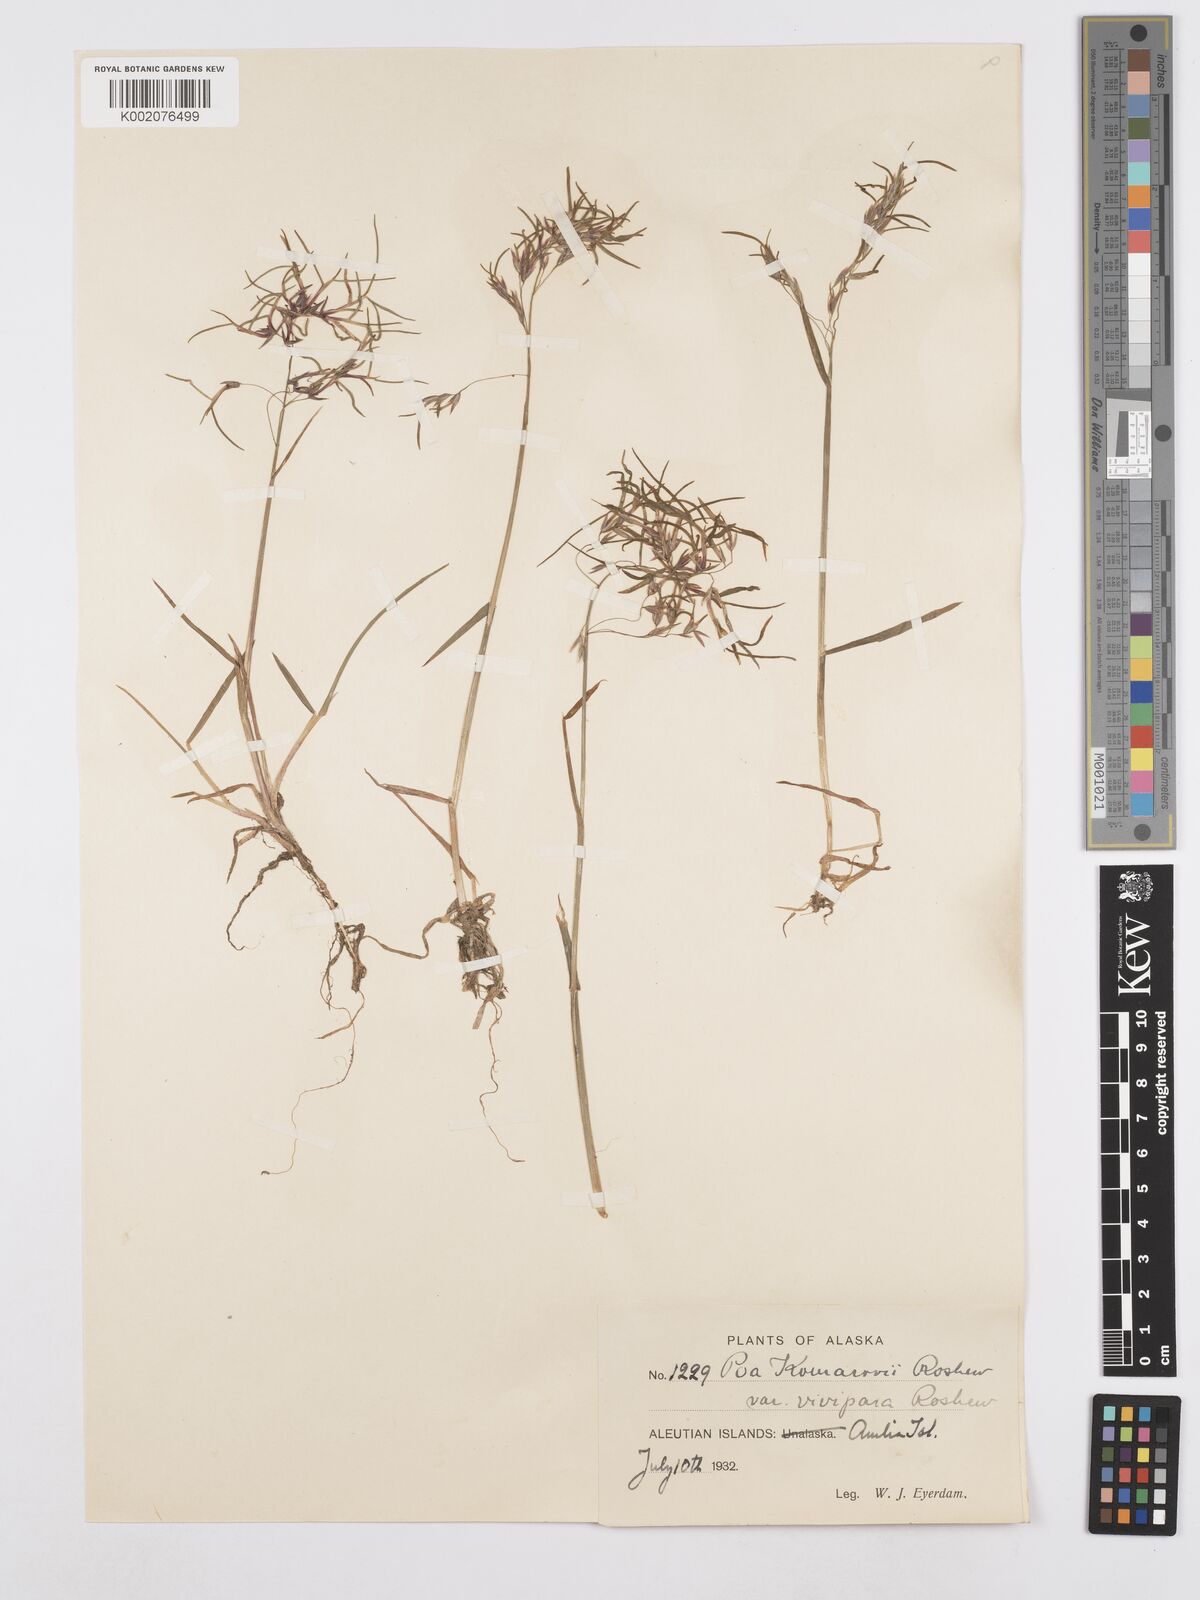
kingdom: Plantae
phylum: Tracheophyta
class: Liliopsida
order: Poales
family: Poaceae
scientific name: Poaceae
